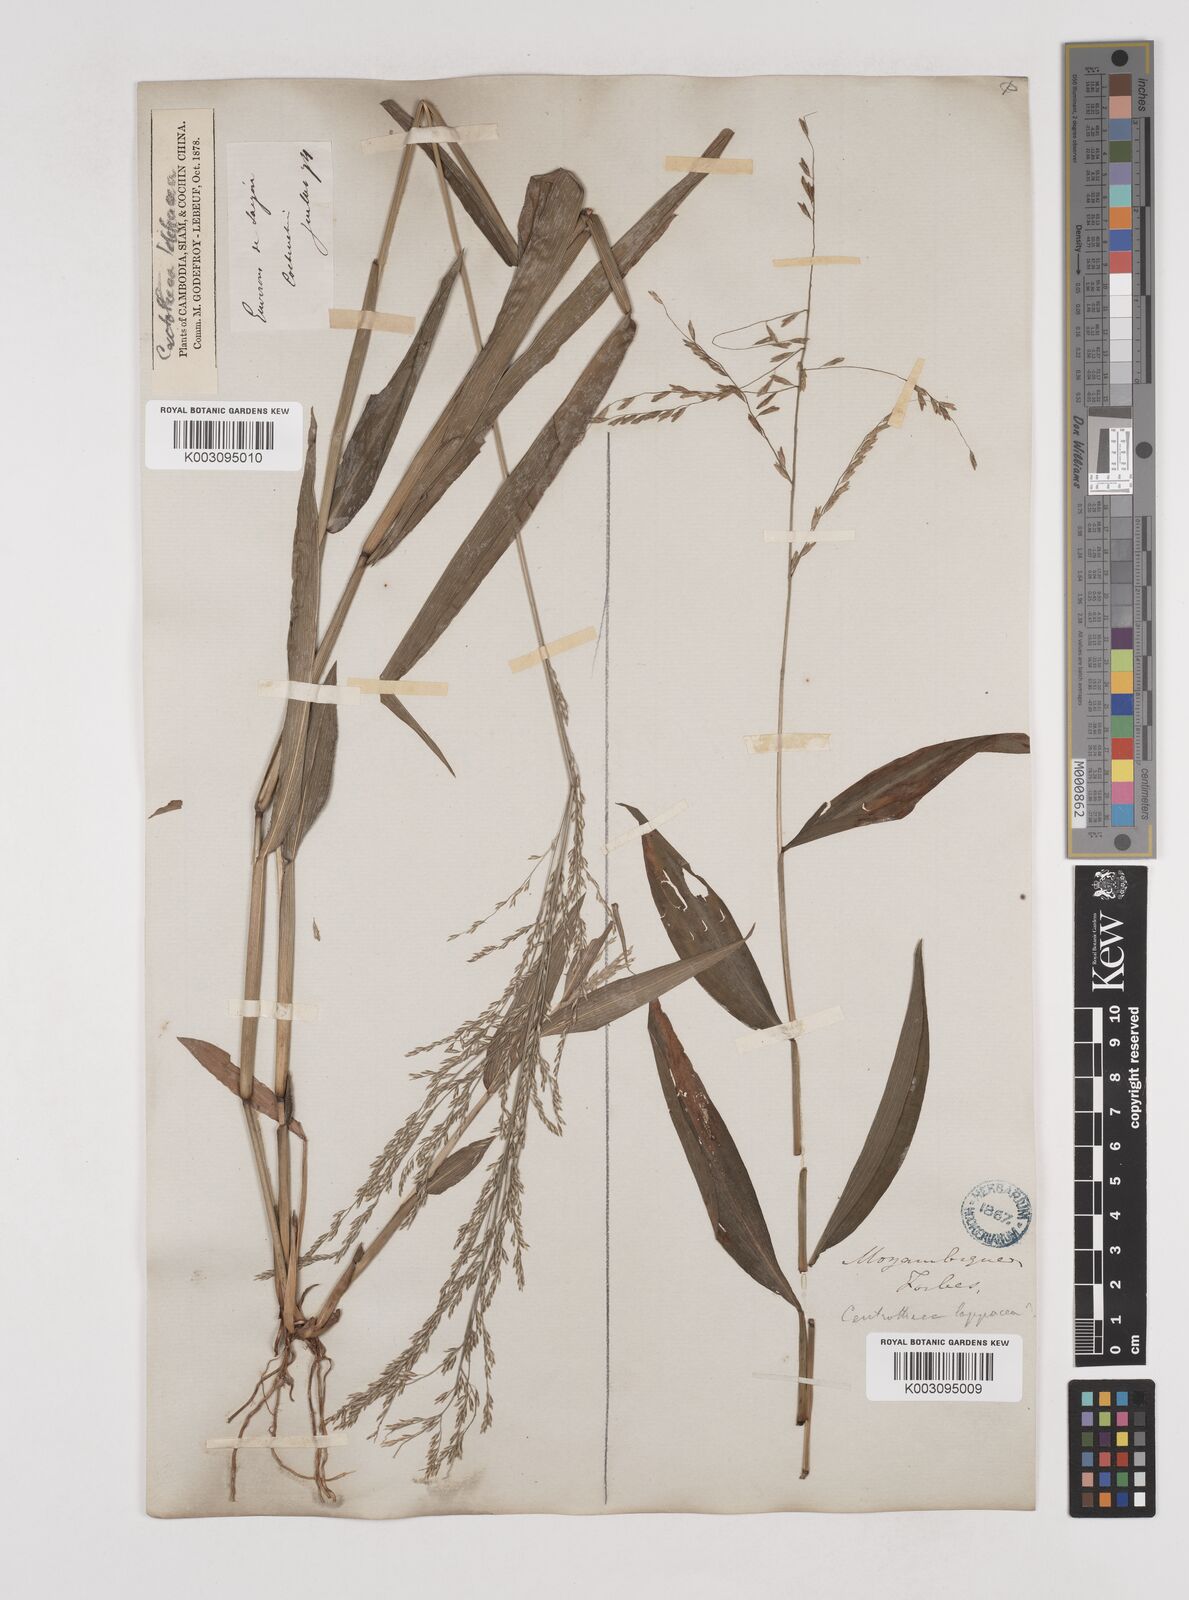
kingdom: Plantae
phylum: Tracheophyta
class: Liliopsida
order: Poales
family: Poaceae
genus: Centotheca
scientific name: Centotheca lappacea
